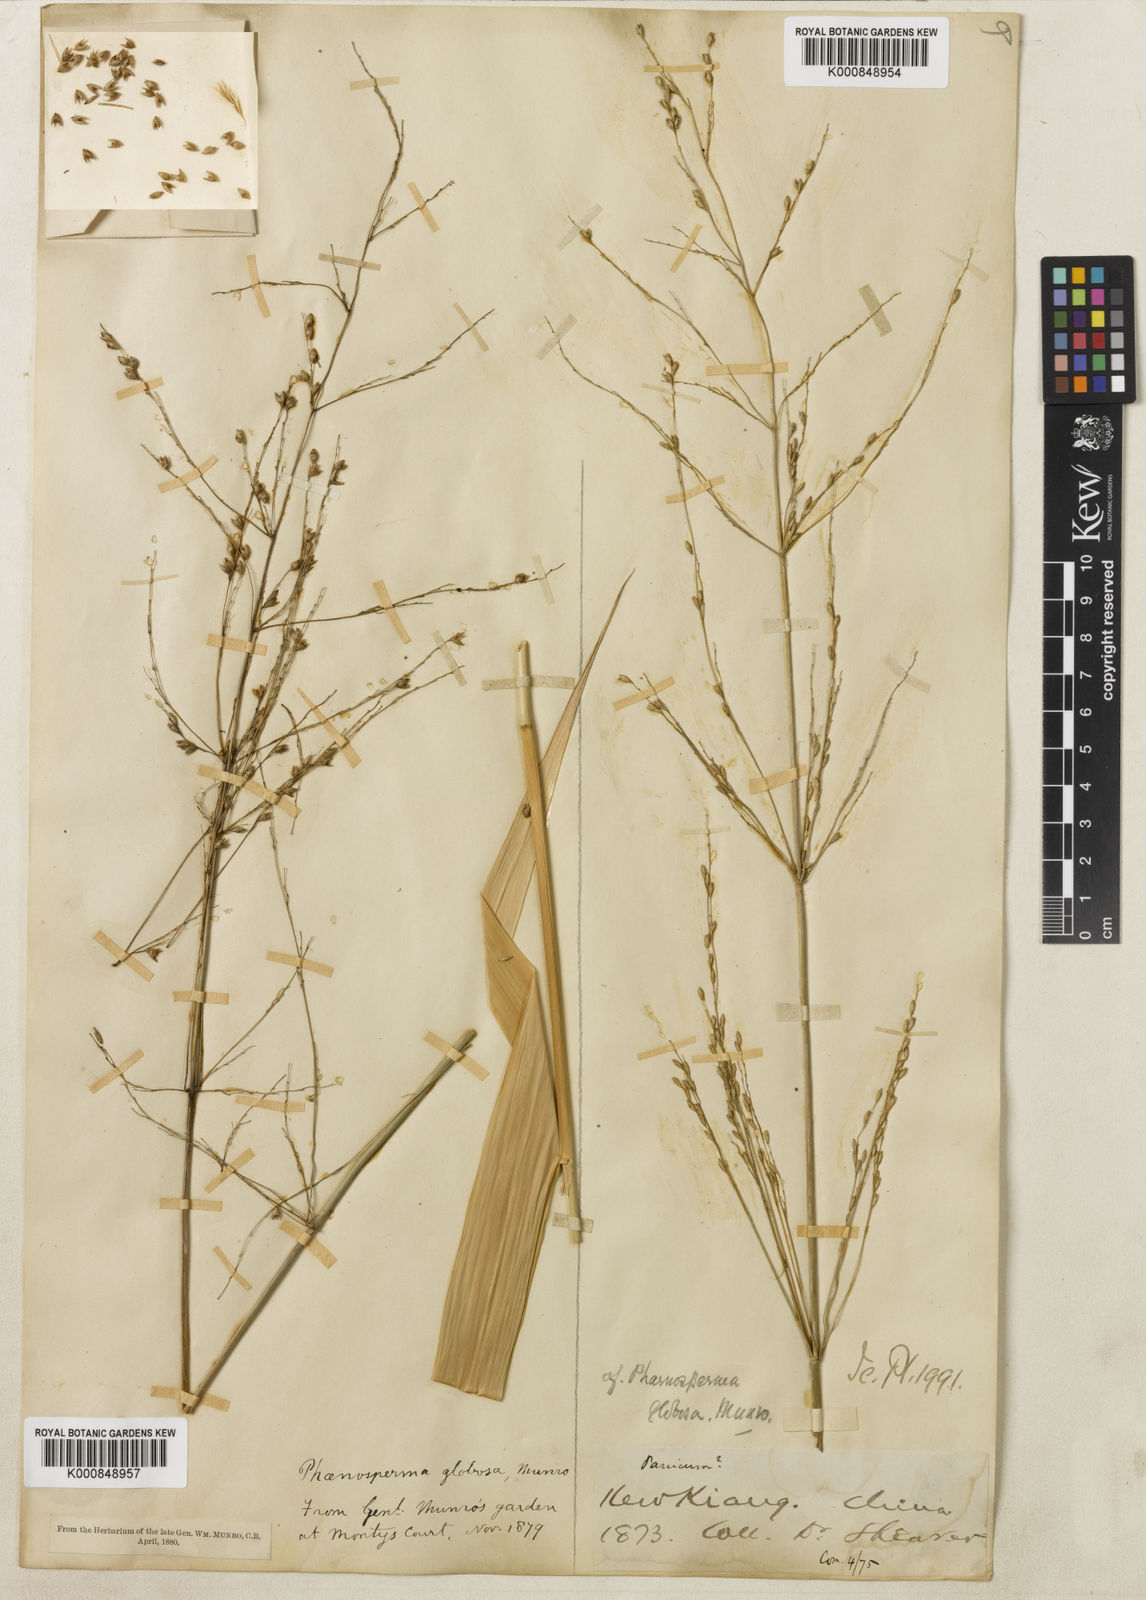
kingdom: Plantae
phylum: Tracheophyta
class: Liliopsida
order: Poales
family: Poaceae
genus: Phaenosperma
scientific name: Phaenosperma
